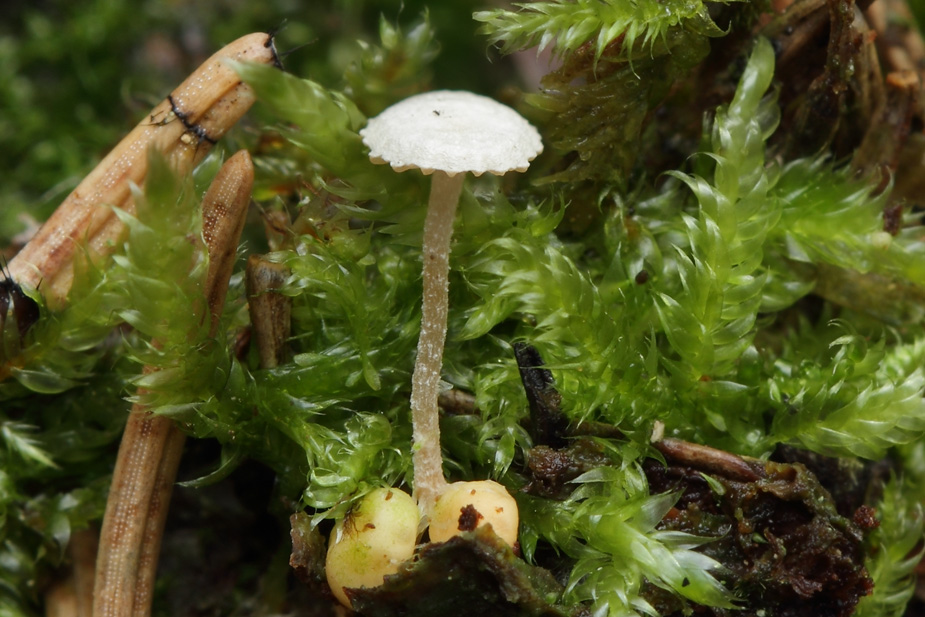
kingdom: Fungi
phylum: Basidiomycota
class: Agaricomycetes
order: Agaricales
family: Tricholomataceae
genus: Collybia
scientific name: Collybia cookei
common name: gulknoldet lighat
